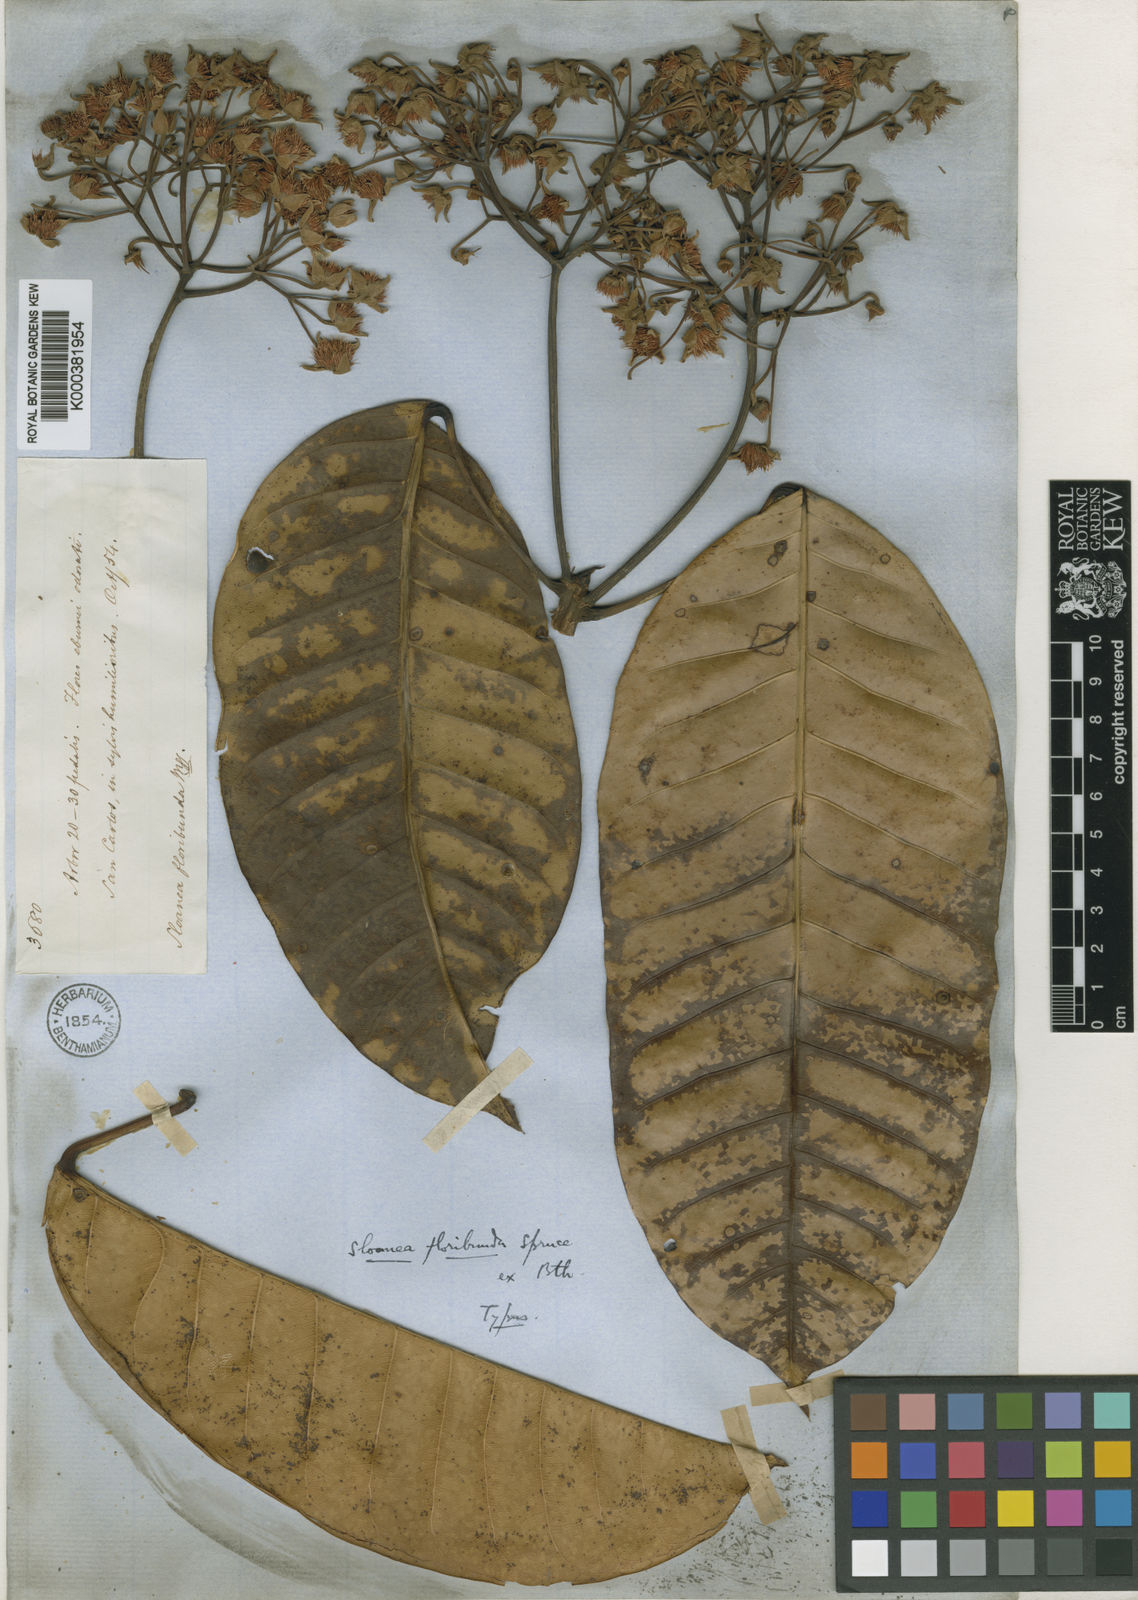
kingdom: Plantae
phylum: Tracheophyta
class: Magnoliopsida
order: Oxalidales
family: Elaeocarpaceae
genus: Sloanea
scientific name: Sloanea floribunda
